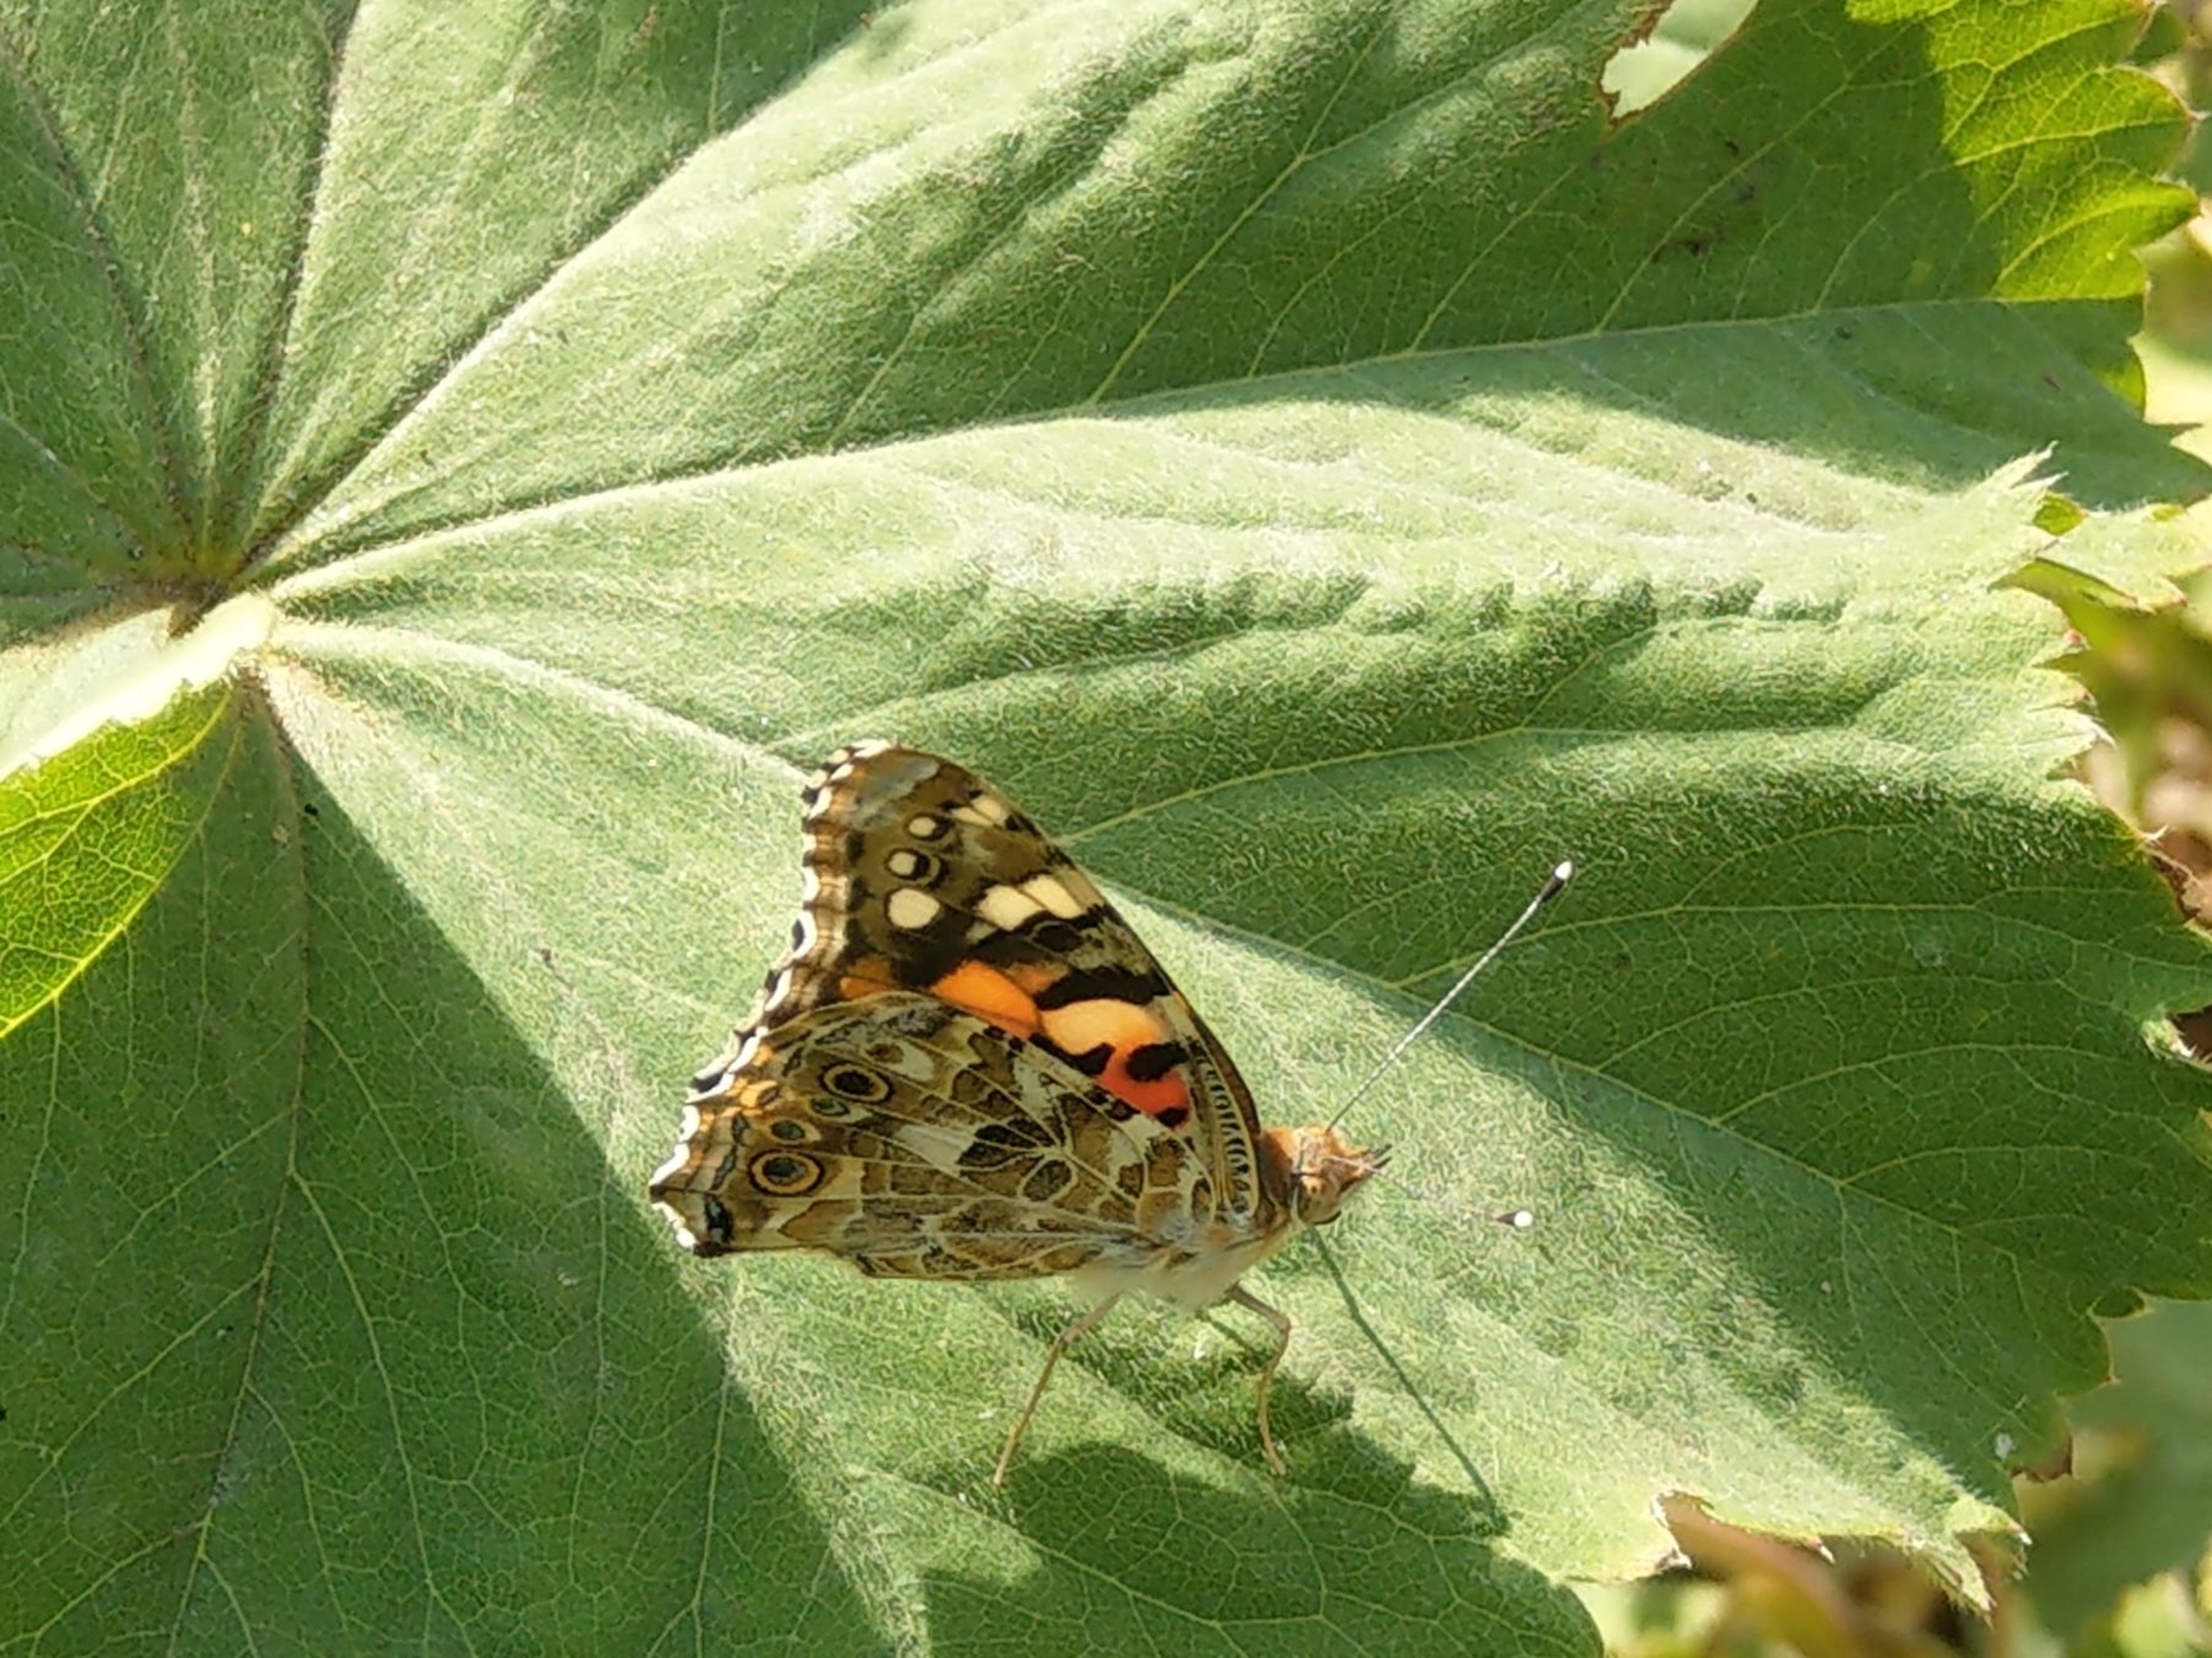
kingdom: Animalia
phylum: Arthropoda
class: Insecta
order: Lepidoptera
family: Nymphalidae
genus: Vanessa
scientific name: Vanessa cardui
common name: Tidselsommerfugl
